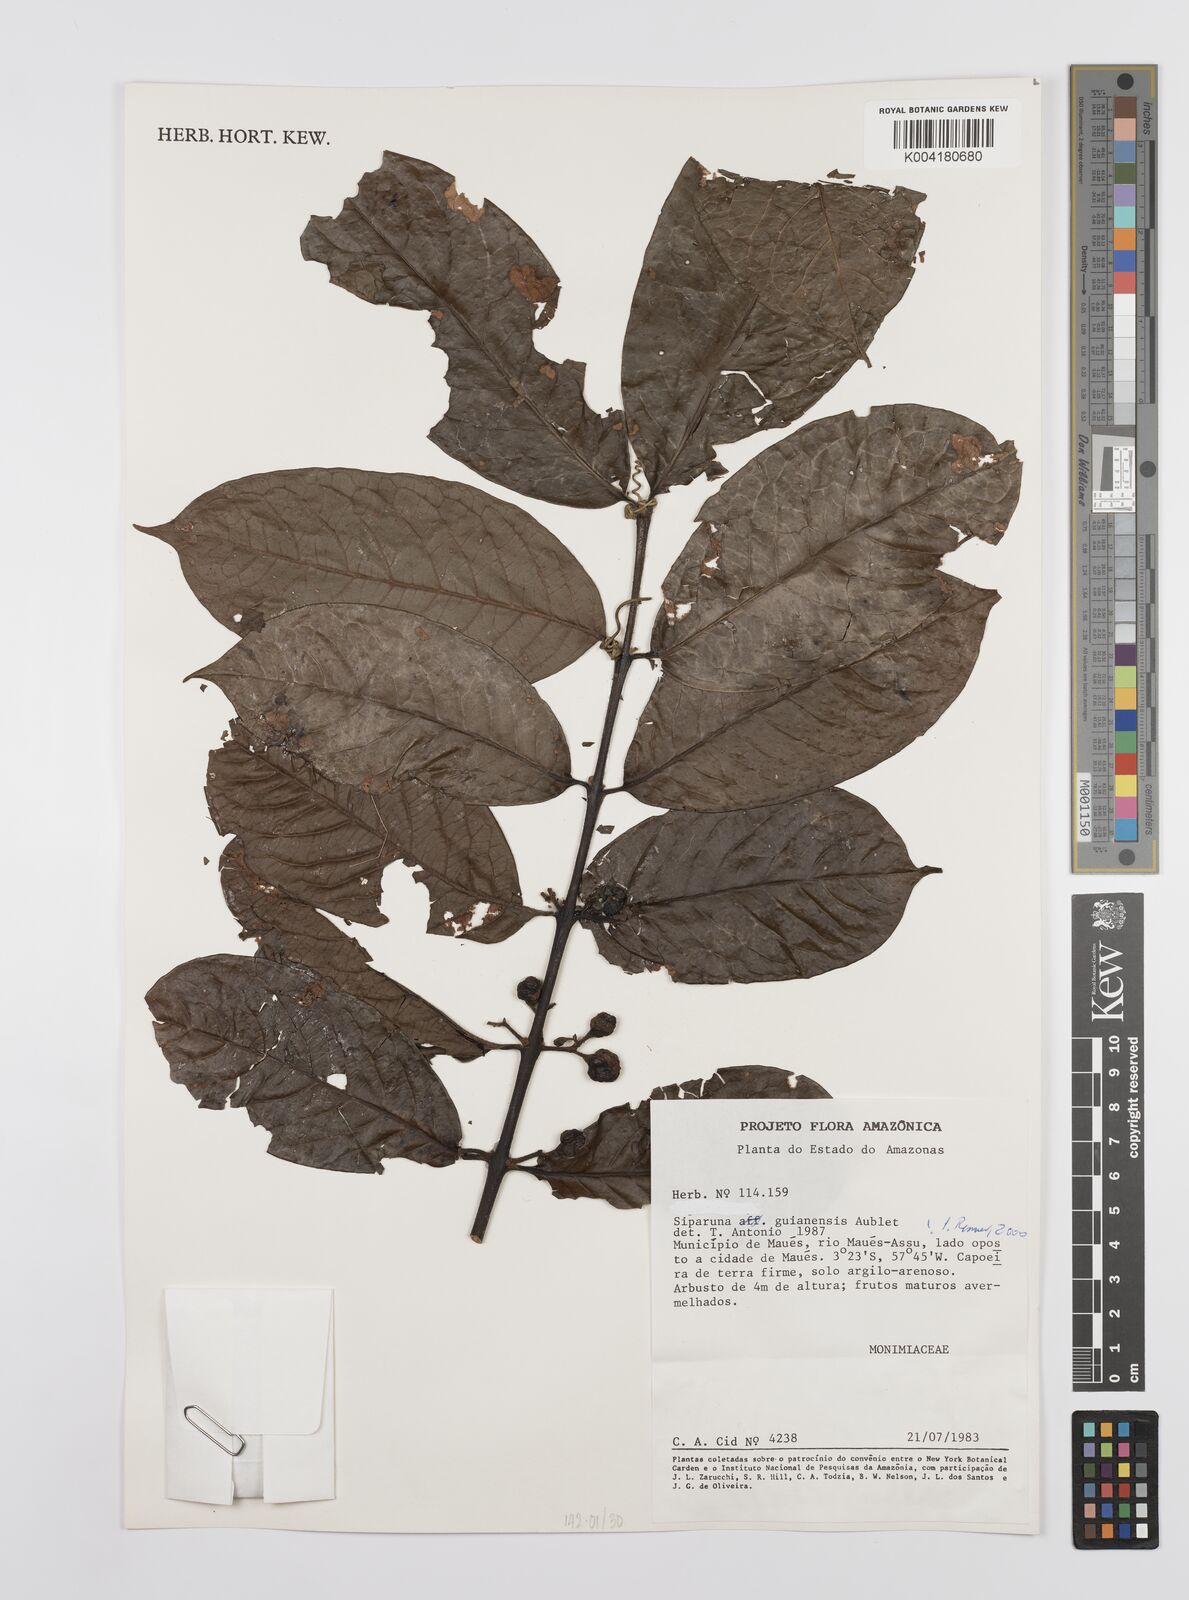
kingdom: Plantae
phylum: Tracheophyta
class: Magnoliopsida
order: Laurales
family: Siparunaceae
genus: Siparuna
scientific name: Siparuna guianensis
